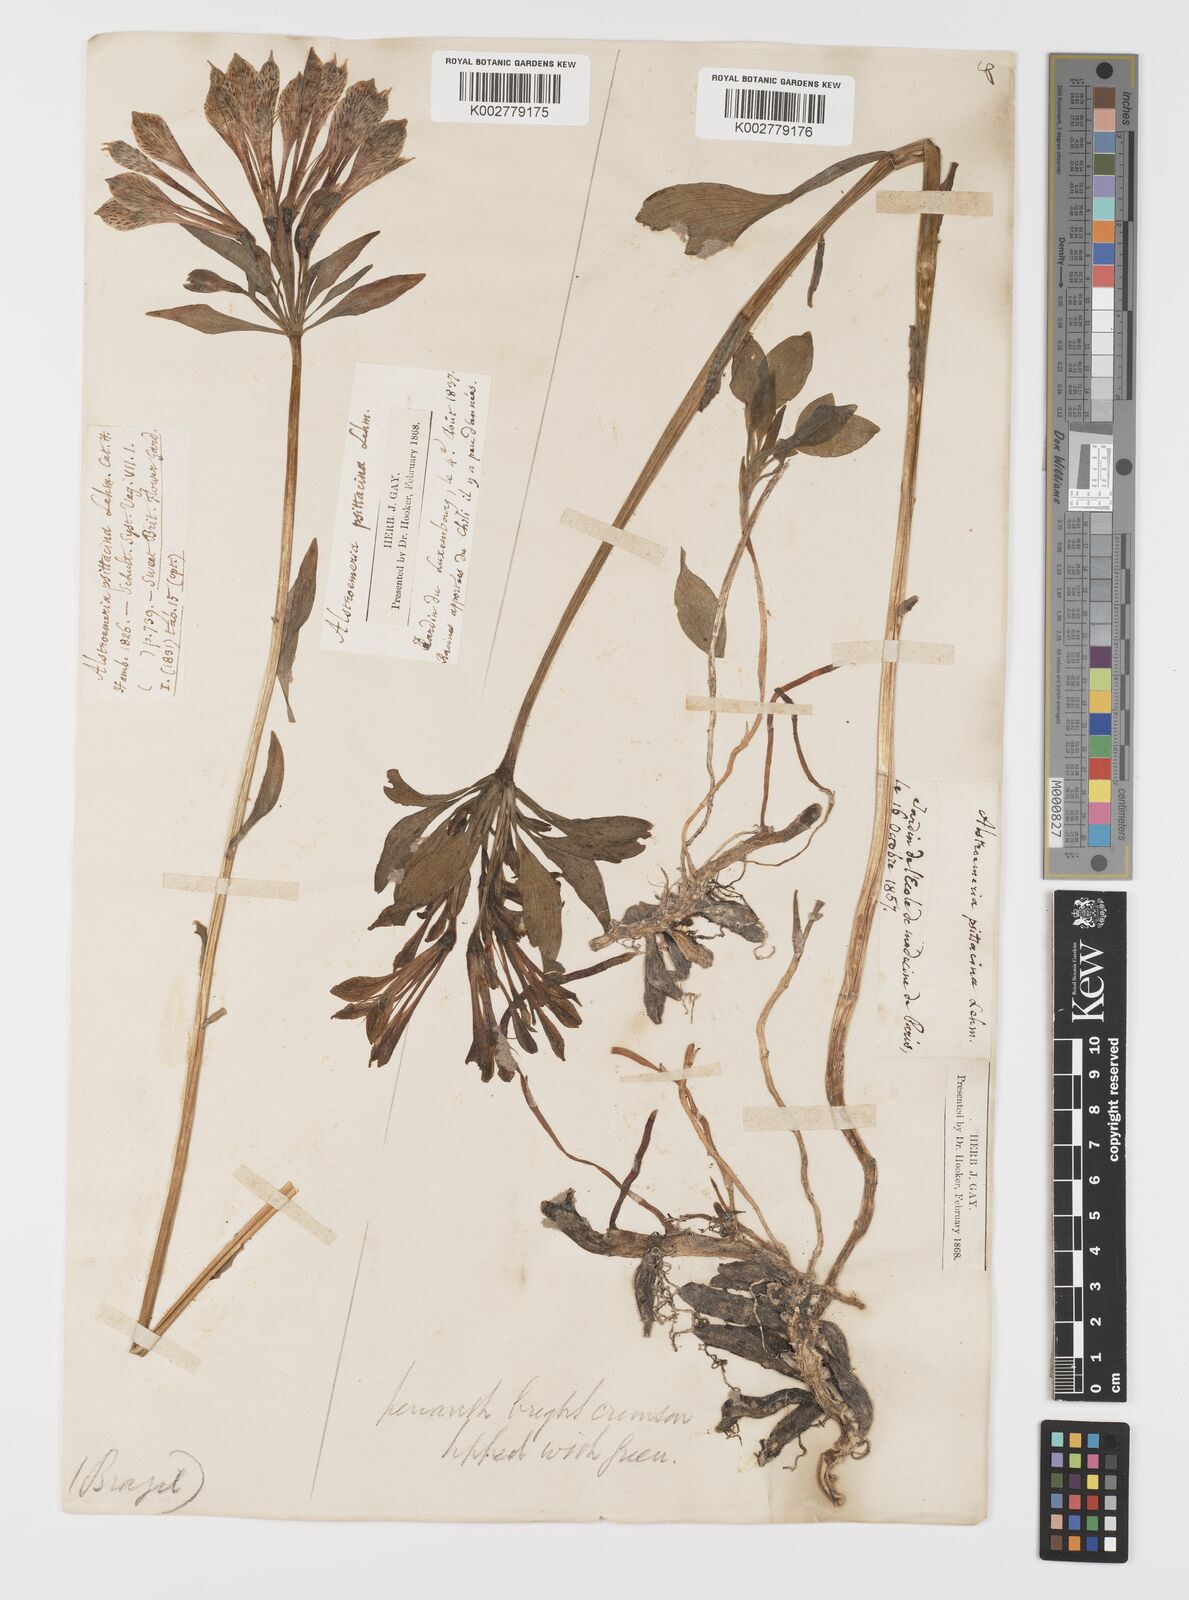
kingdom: Plantae
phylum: Tracheophyta
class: Liliopsida
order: Liliales
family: Alstroemeriaceae
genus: Alstroemeria
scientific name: Alstroemeria pelegrina
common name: Peruvian-lily
